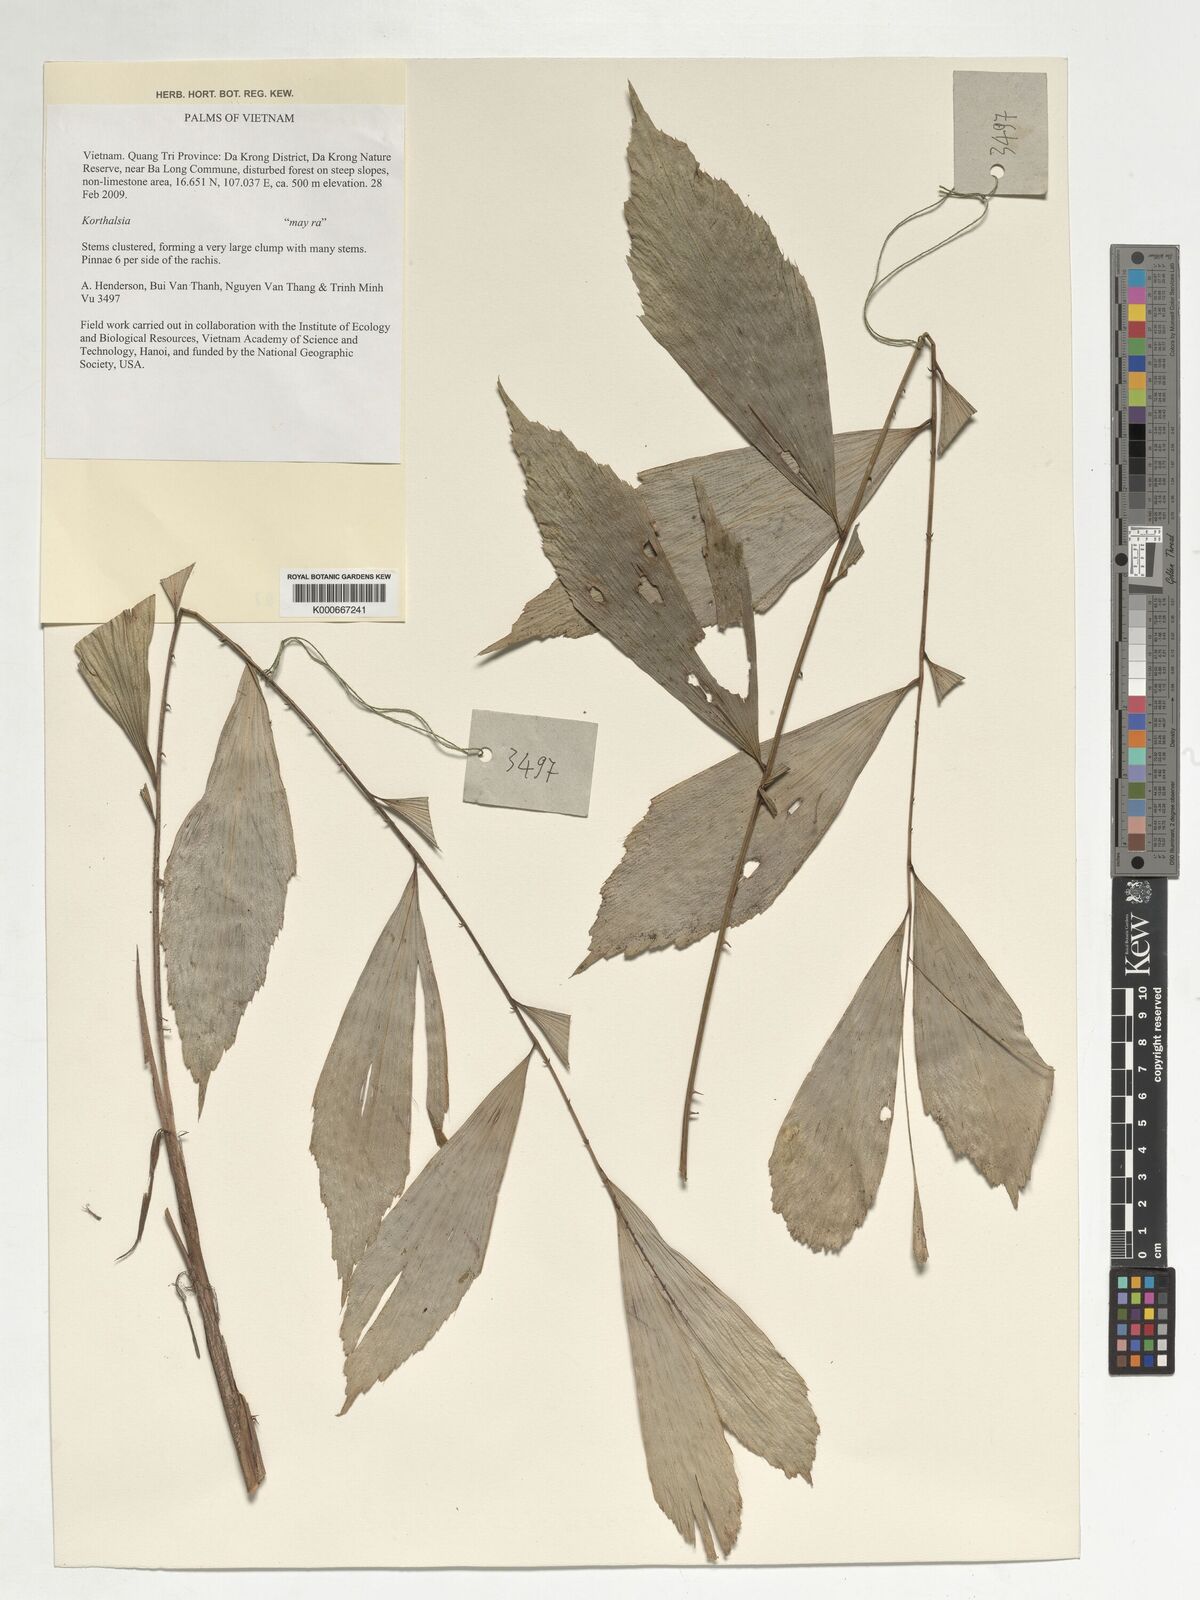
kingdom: Plantae
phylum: Tracheophyta
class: Liliopsida
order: Arecales
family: Arecaceae
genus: Korthalsia
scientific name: Korthalsia
